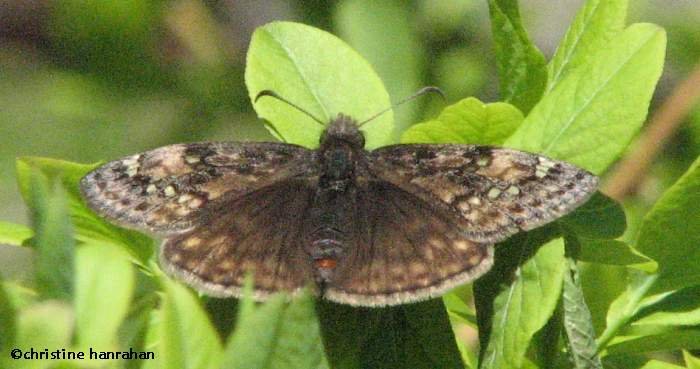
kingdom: Animalia
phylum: Arthropoda
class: Insecta
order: Lepidoptera
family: Hesperiidae
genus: Gesta
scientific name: Gesta
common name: Juvenal's Duskywing
